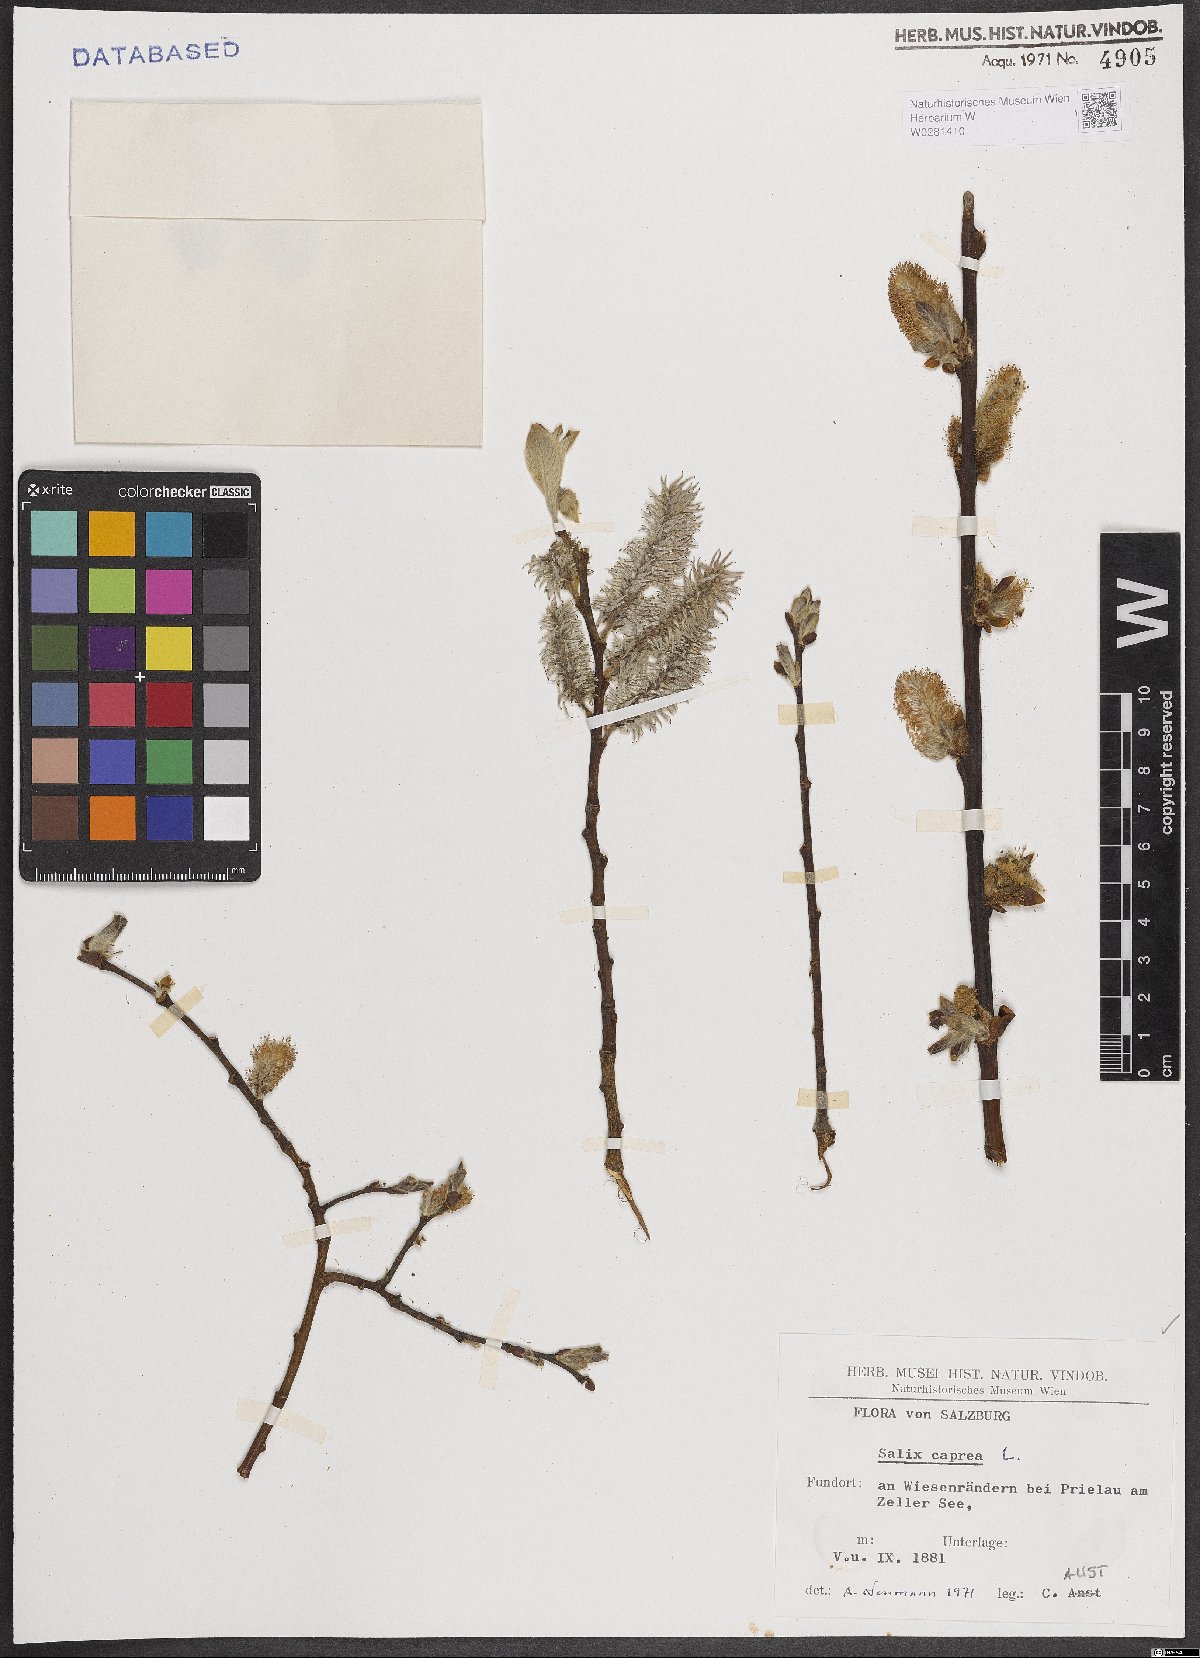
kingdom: Plantae
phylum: Tracheophyta
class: Magnoliopsida
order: Malpighiales
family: Salicaceae
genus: Salix
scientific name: Salix caprea
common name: Goat willow
